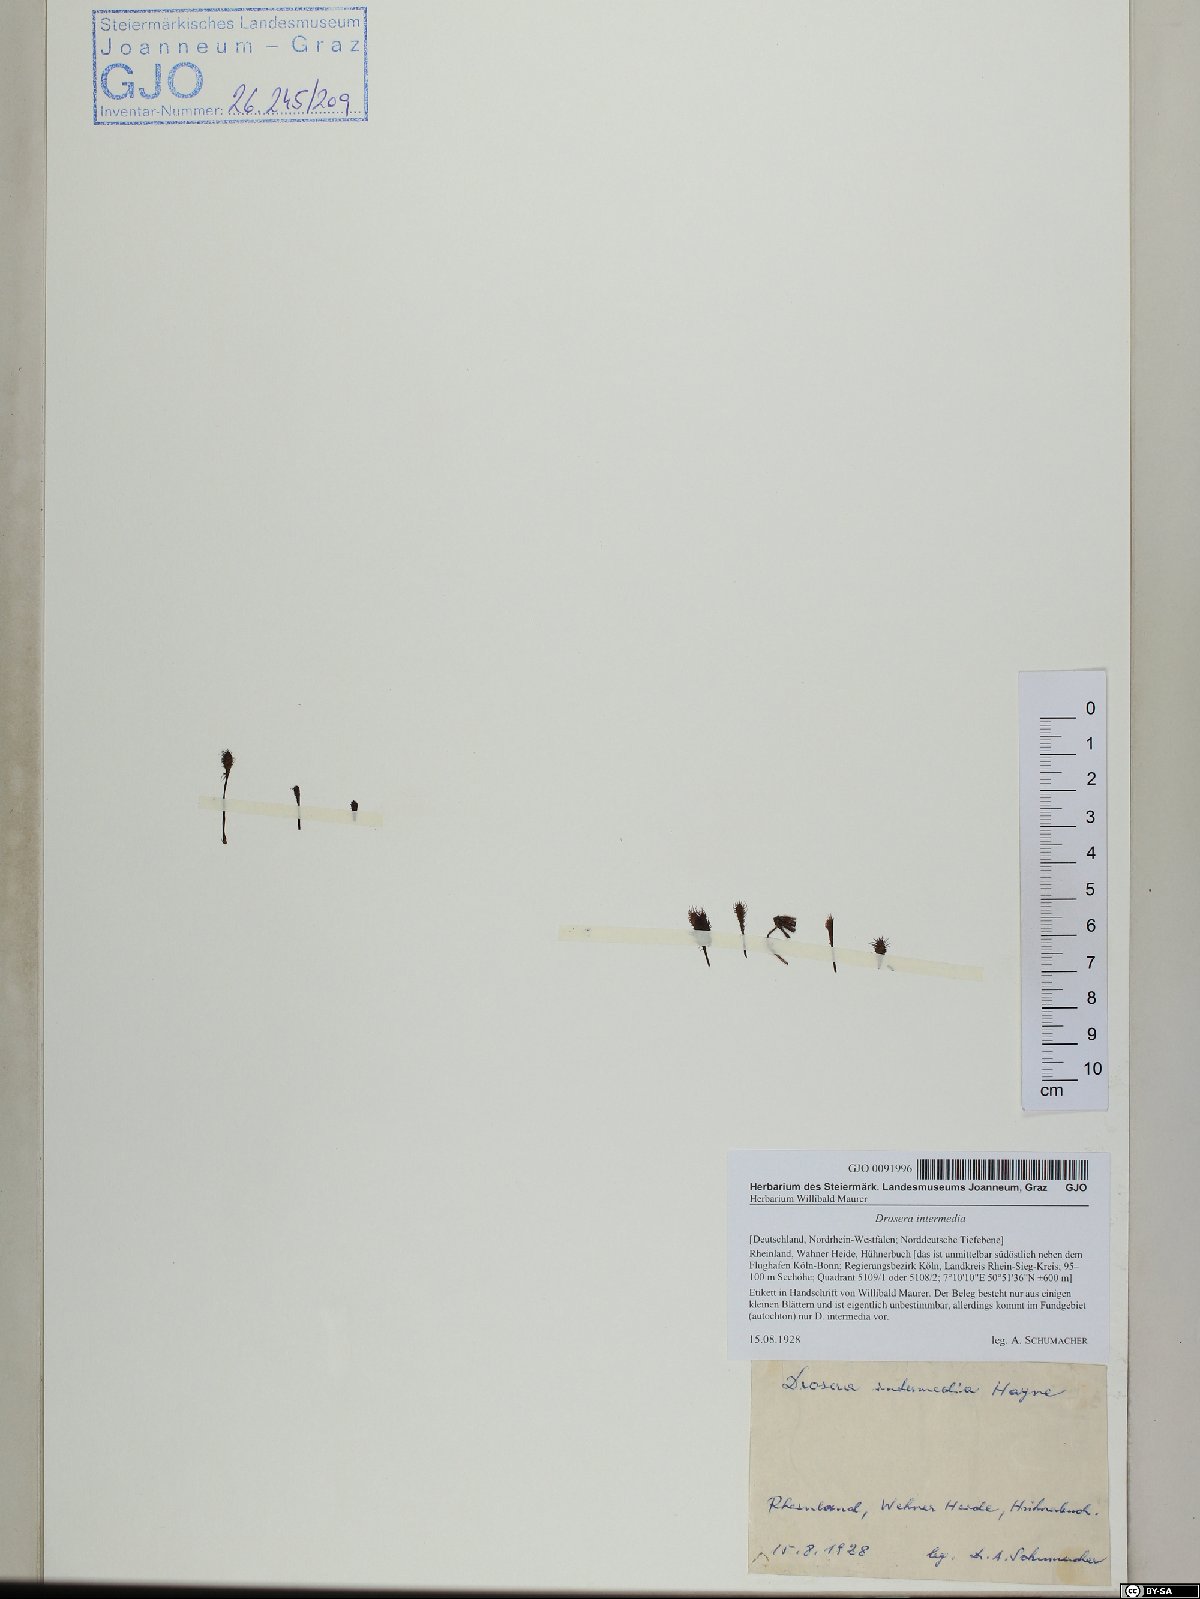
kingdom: Plantae
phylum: Tracheophyta
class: Magnoliopsida
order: Caryophyllales
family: Droseraceae
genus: Drosera
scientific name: Drosera intermedia
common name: Oblong-leaved sundew
